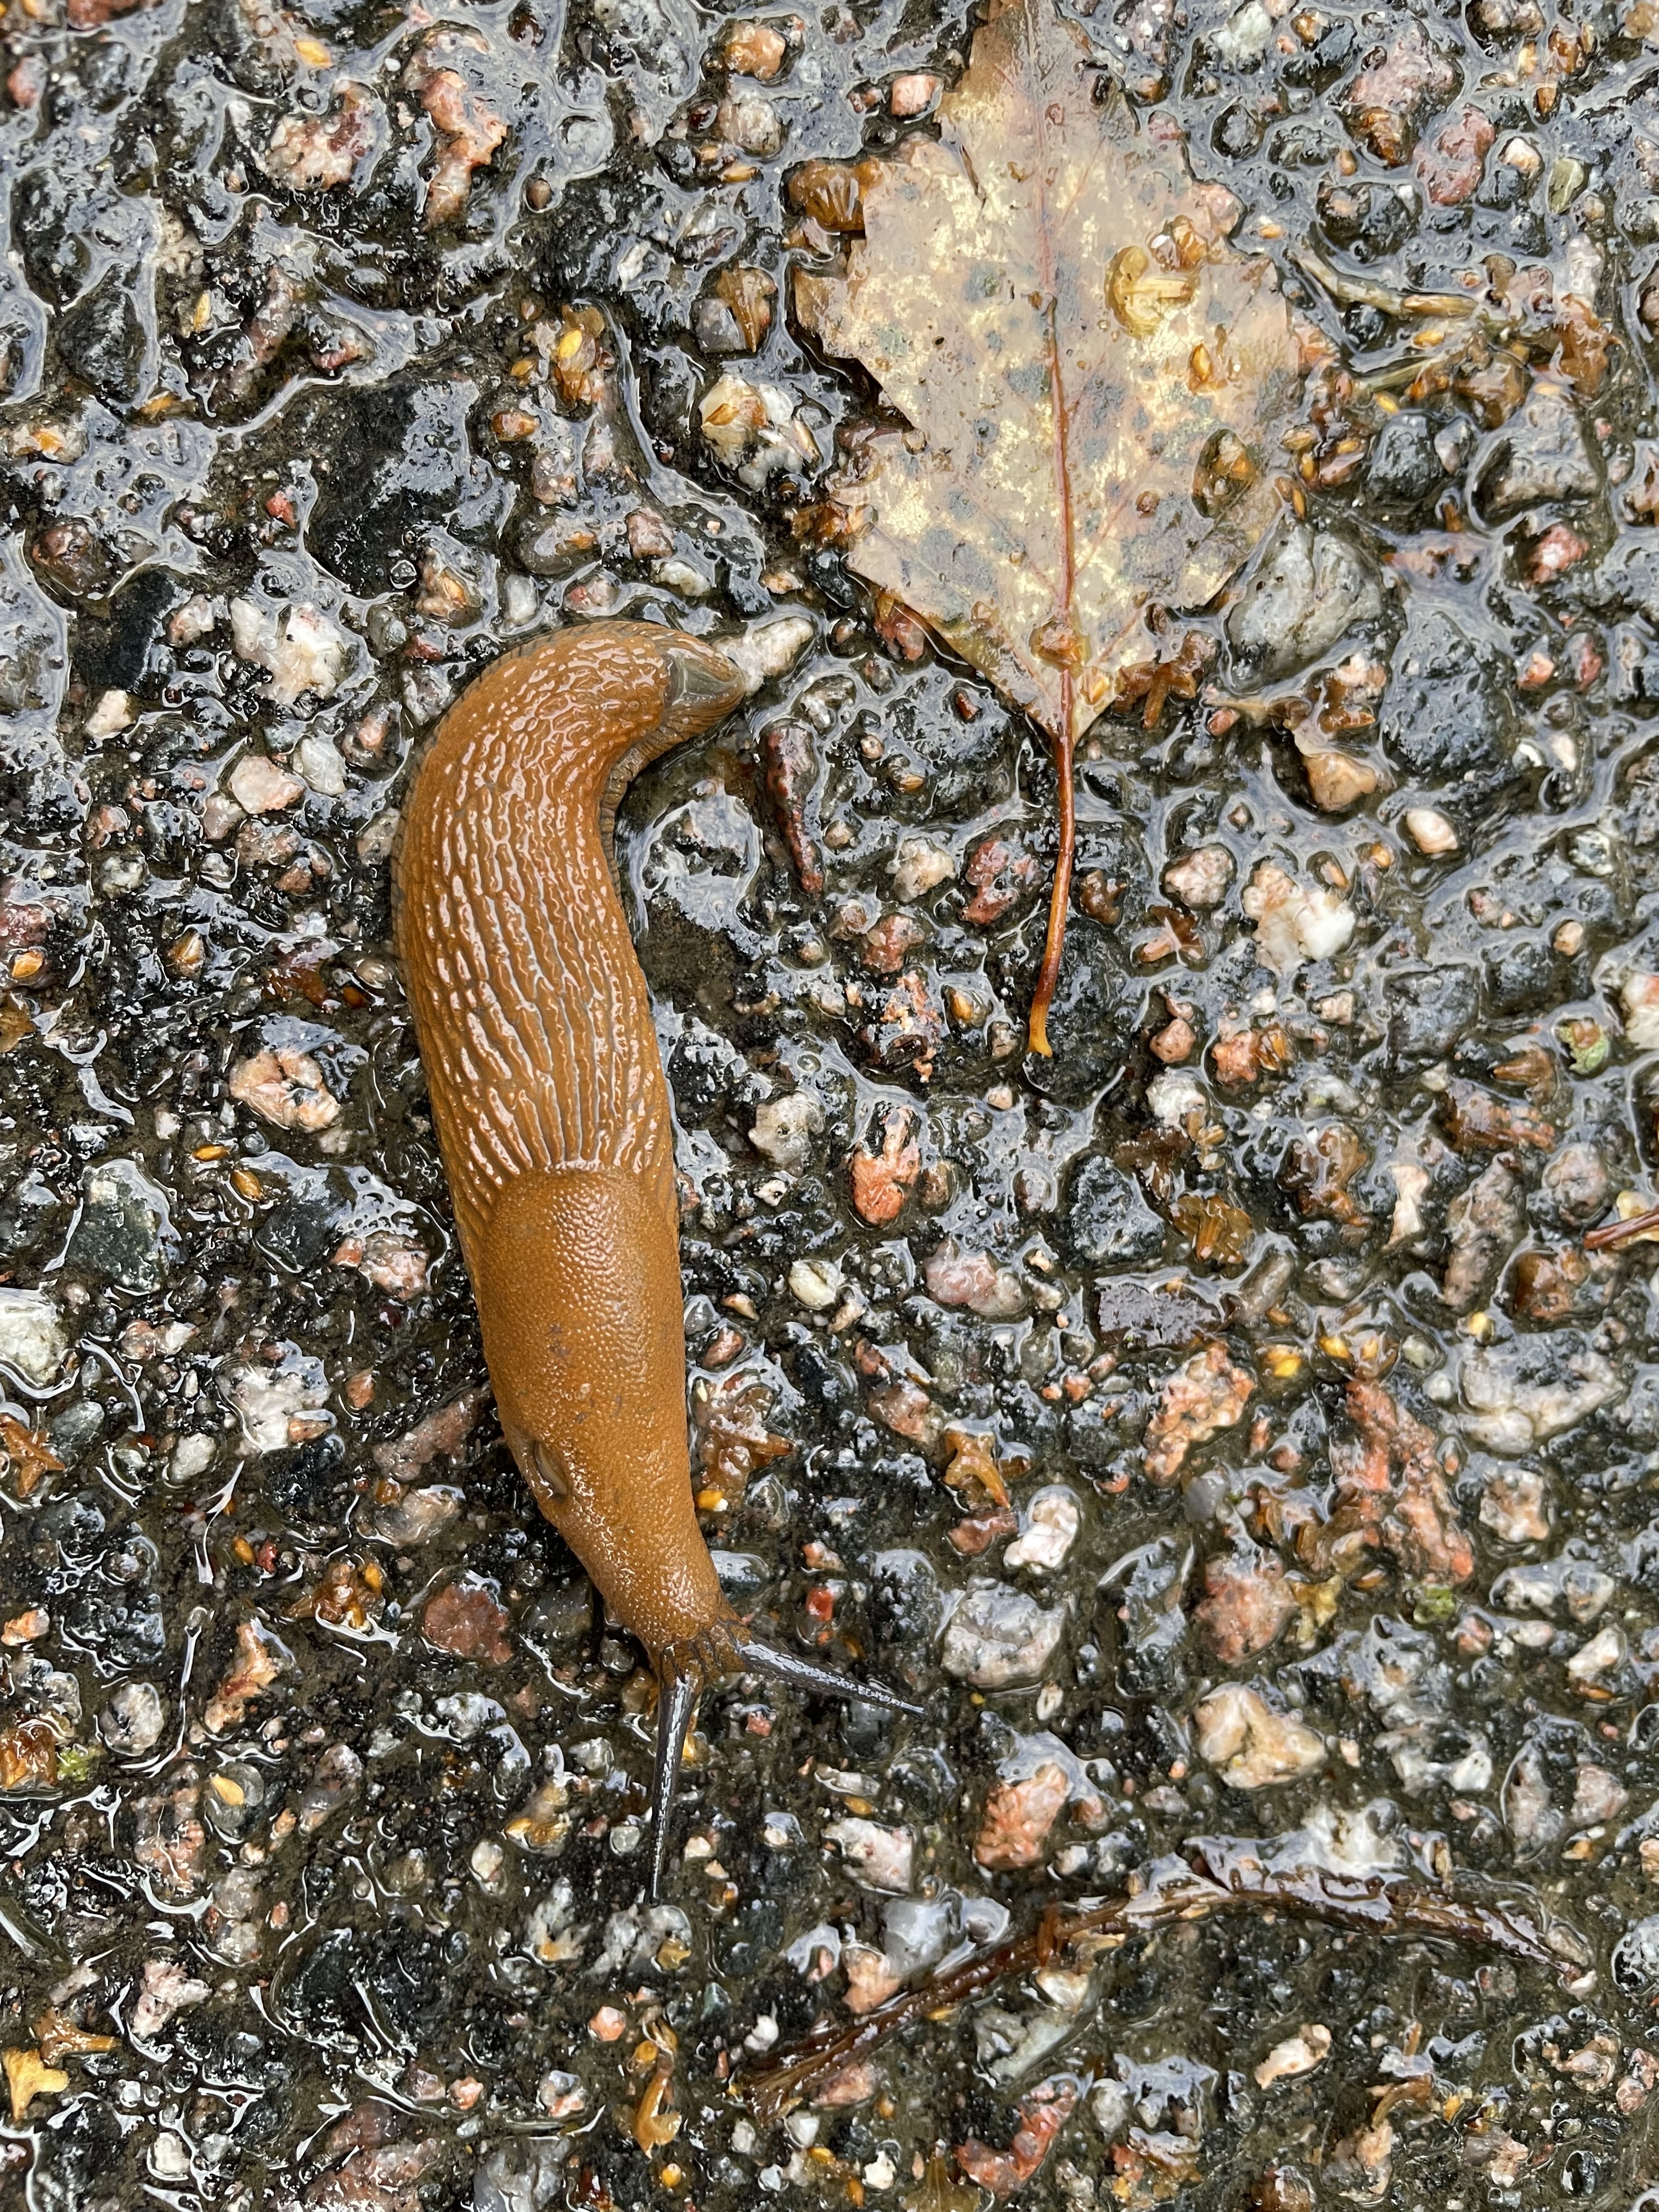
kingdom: Animalia
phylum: Mollusca
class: Gastropoda
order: Stylommatophora
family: Arionidae
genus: Arion
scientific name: Arion vulgaris
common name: Lusitanian slug
